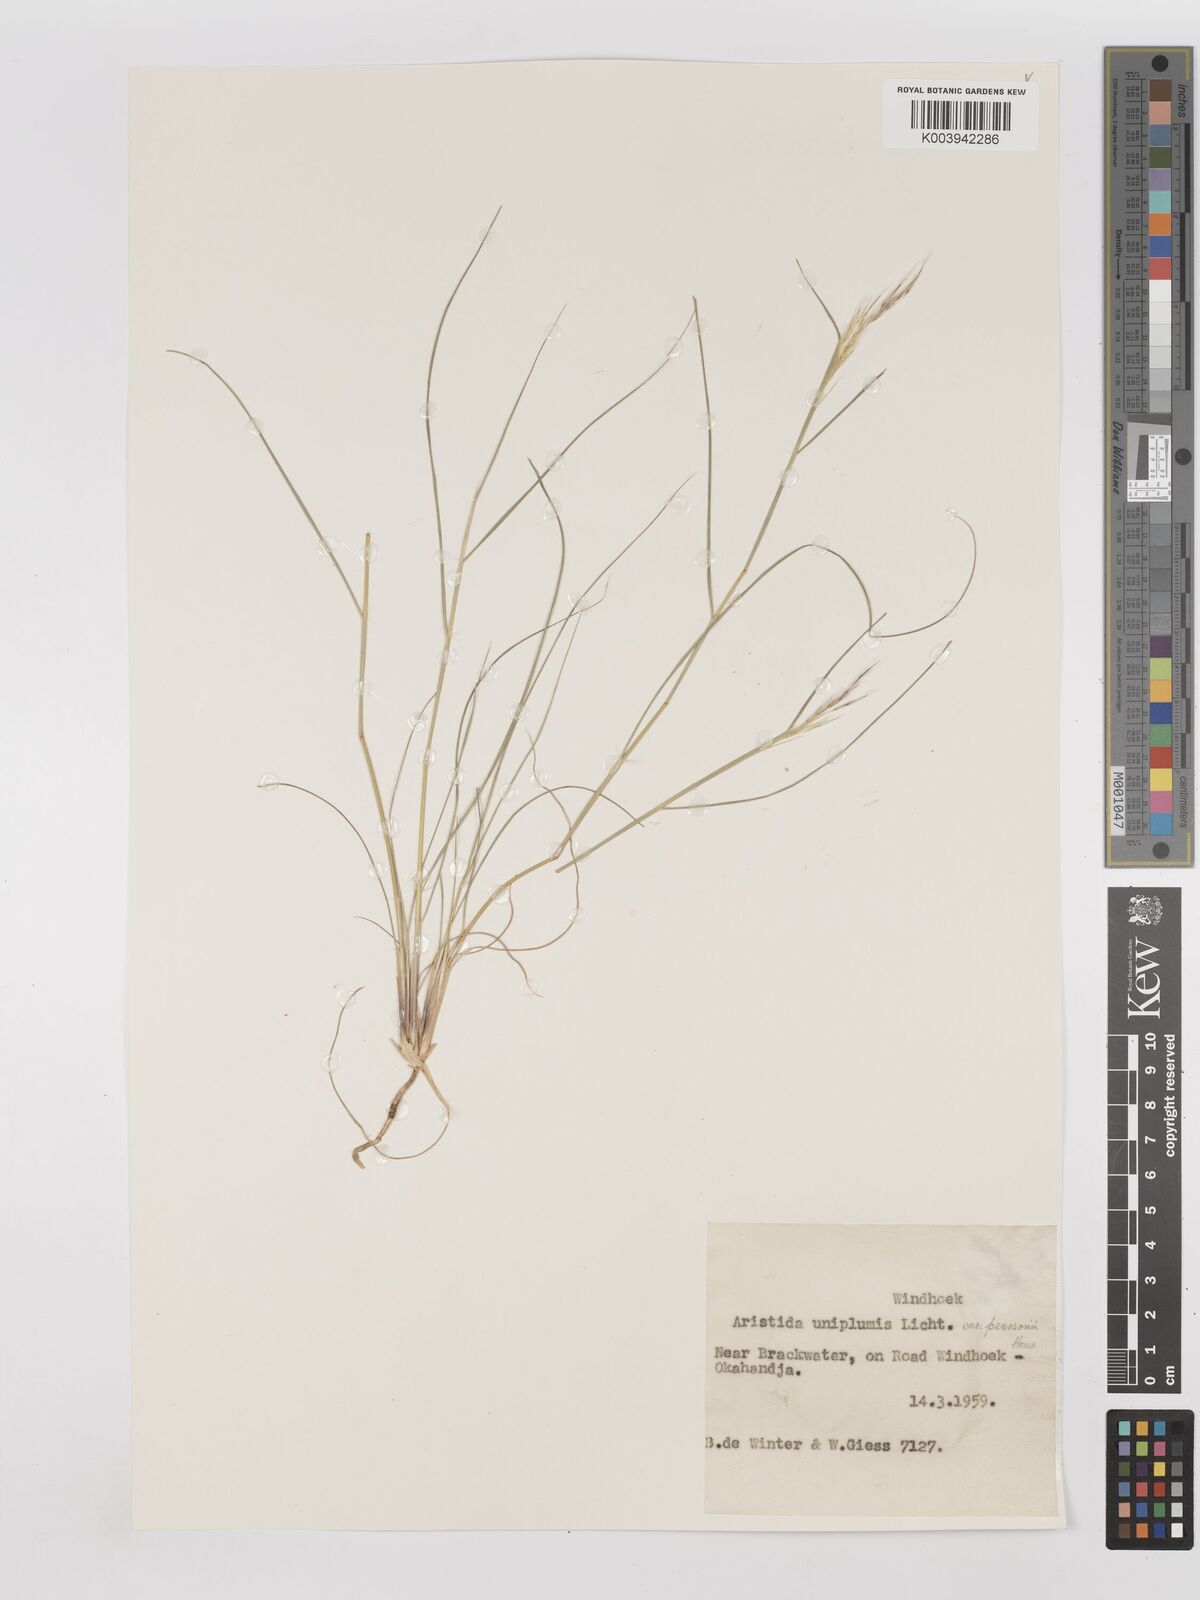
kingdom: Plantae
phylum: Tracheophyta
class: Liliopsida
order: Poales
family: Poaceae
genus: Stipagrostis
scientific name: Stipagrostis uniplumis
